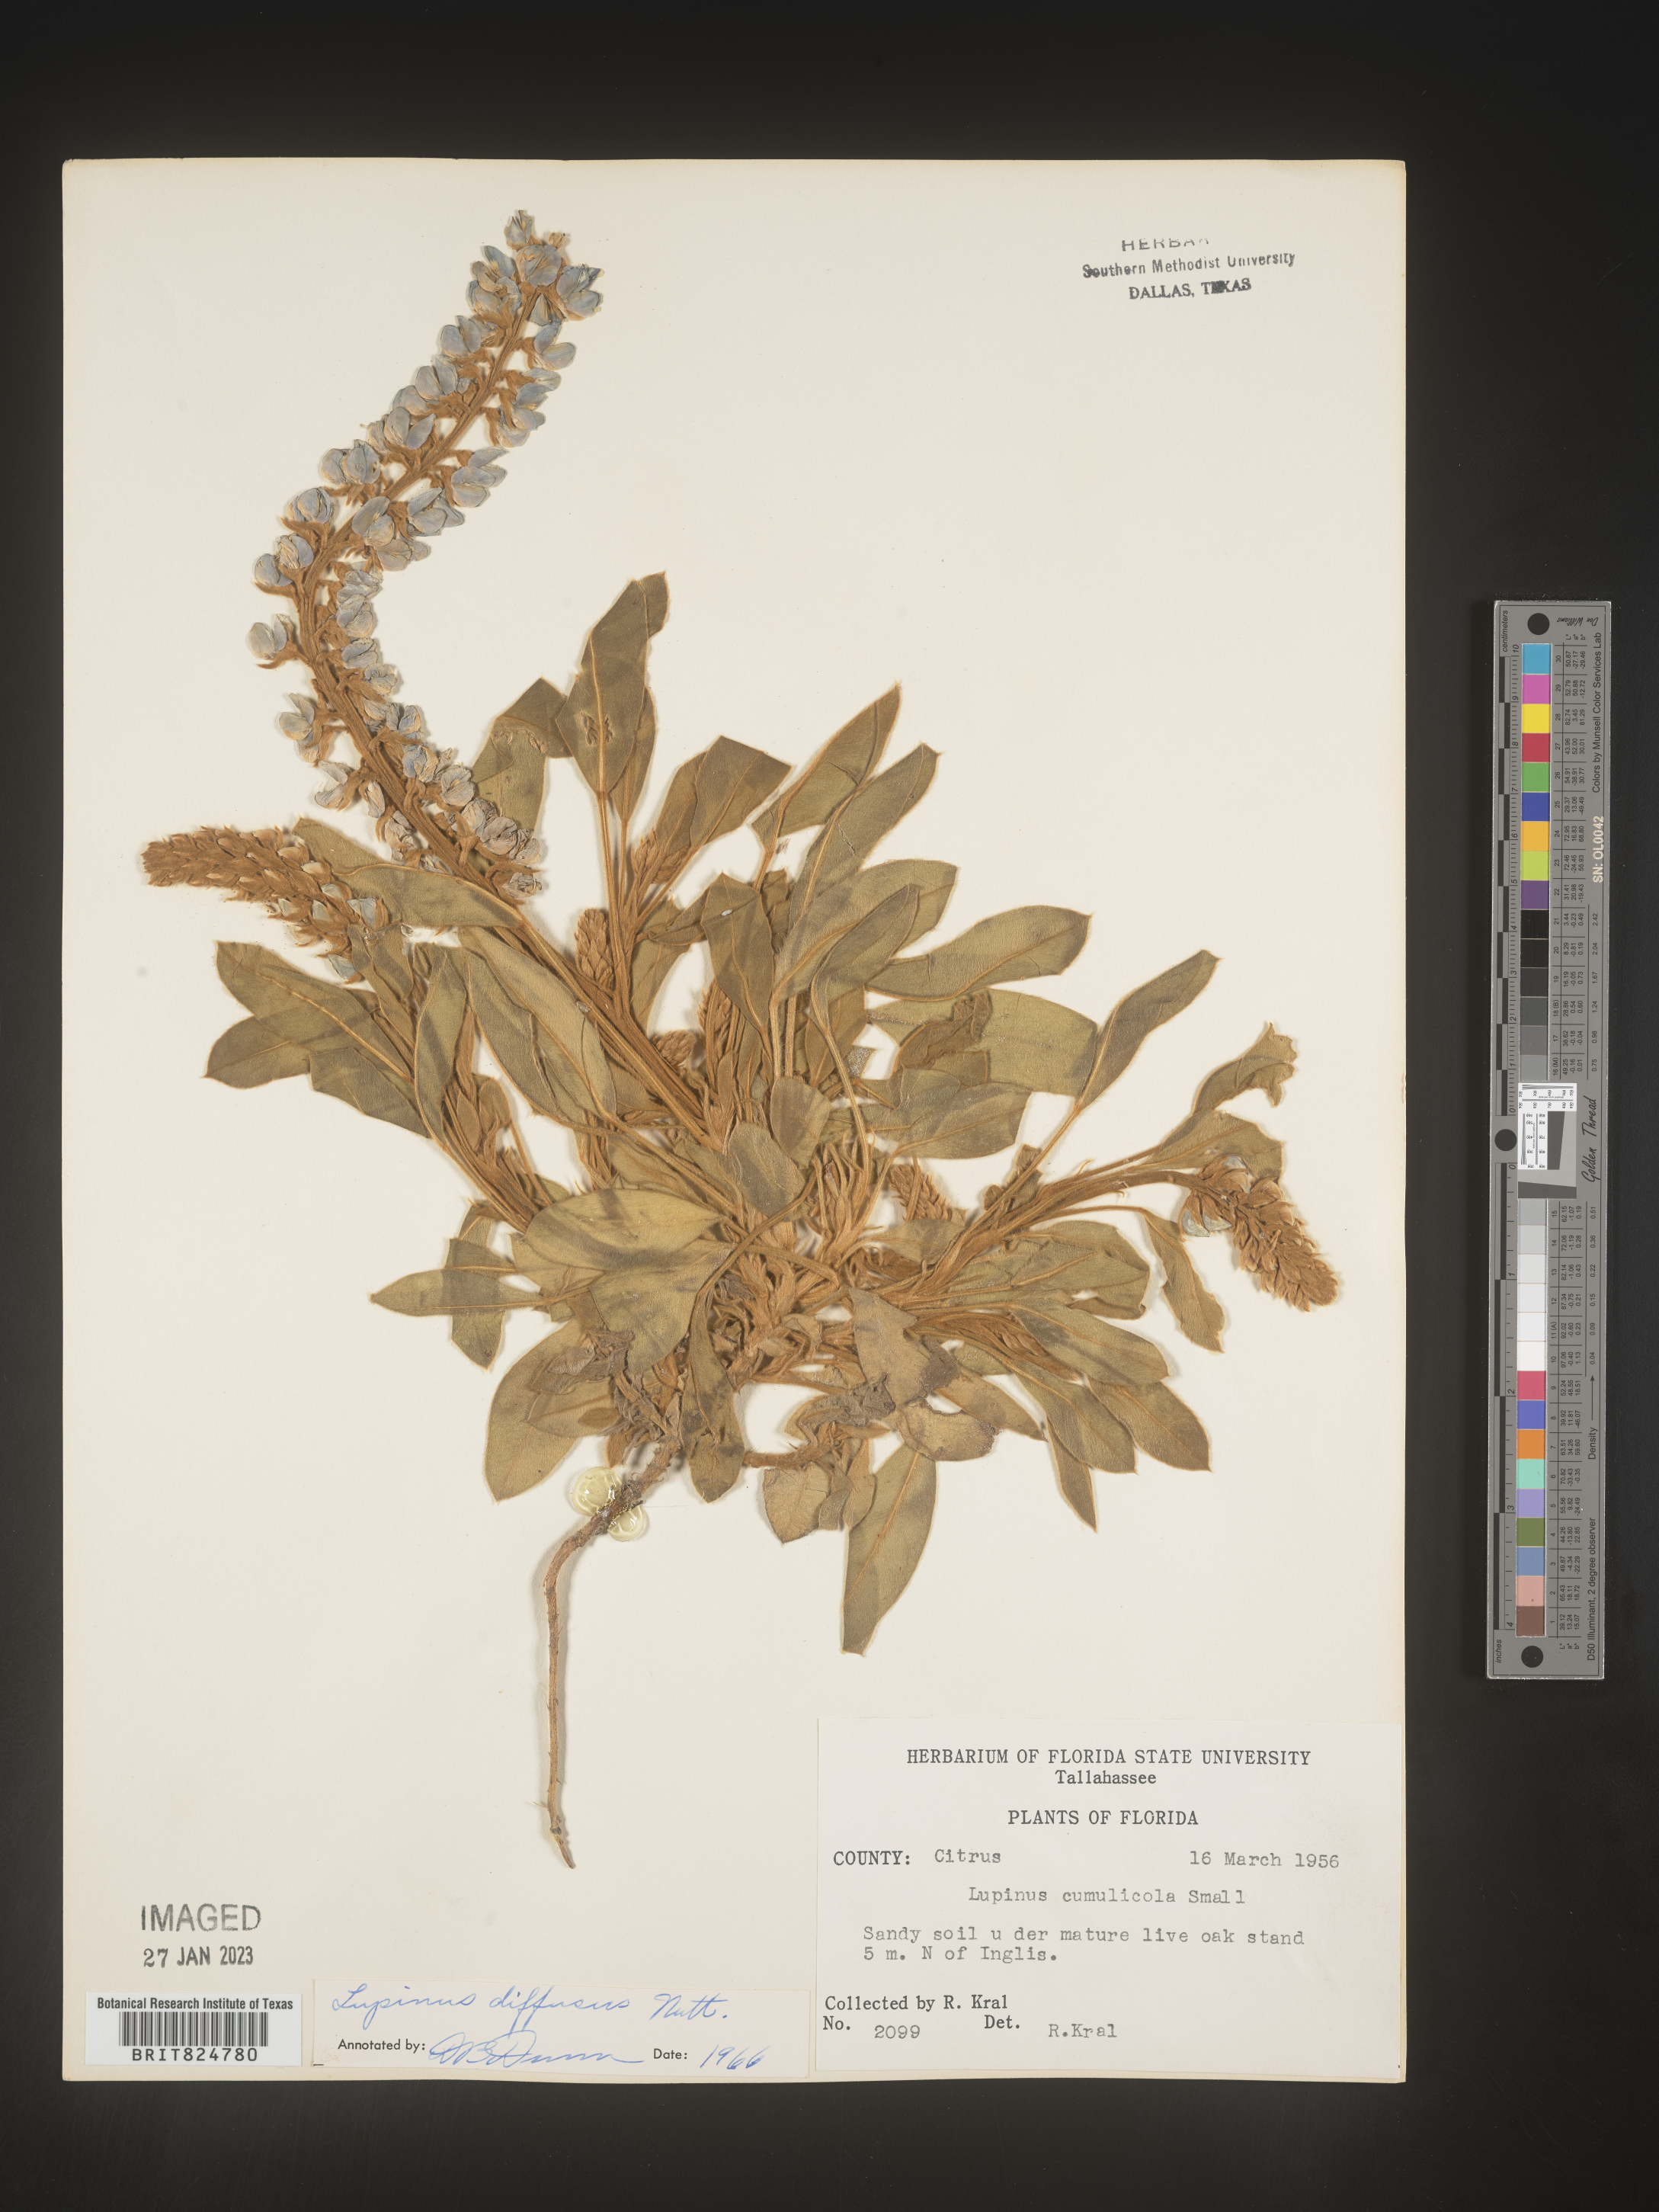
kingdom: Plantae
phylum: Tracheophyta
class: Magnoliopsida
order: Fabales
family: Fabaceae
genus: Lupinus
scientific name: Lupinus diffusus
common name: Oak ridge lupine
